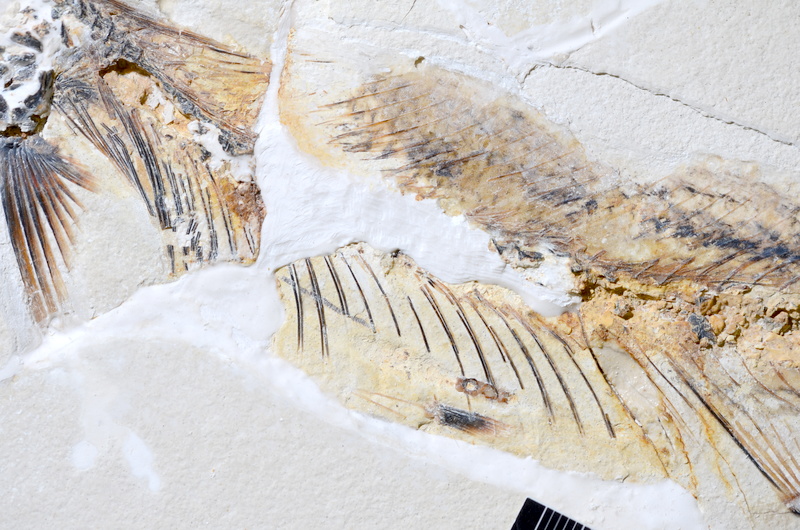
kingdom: Animalia
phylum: Chordata
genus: Thrissops
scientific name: Thrissops formosus
